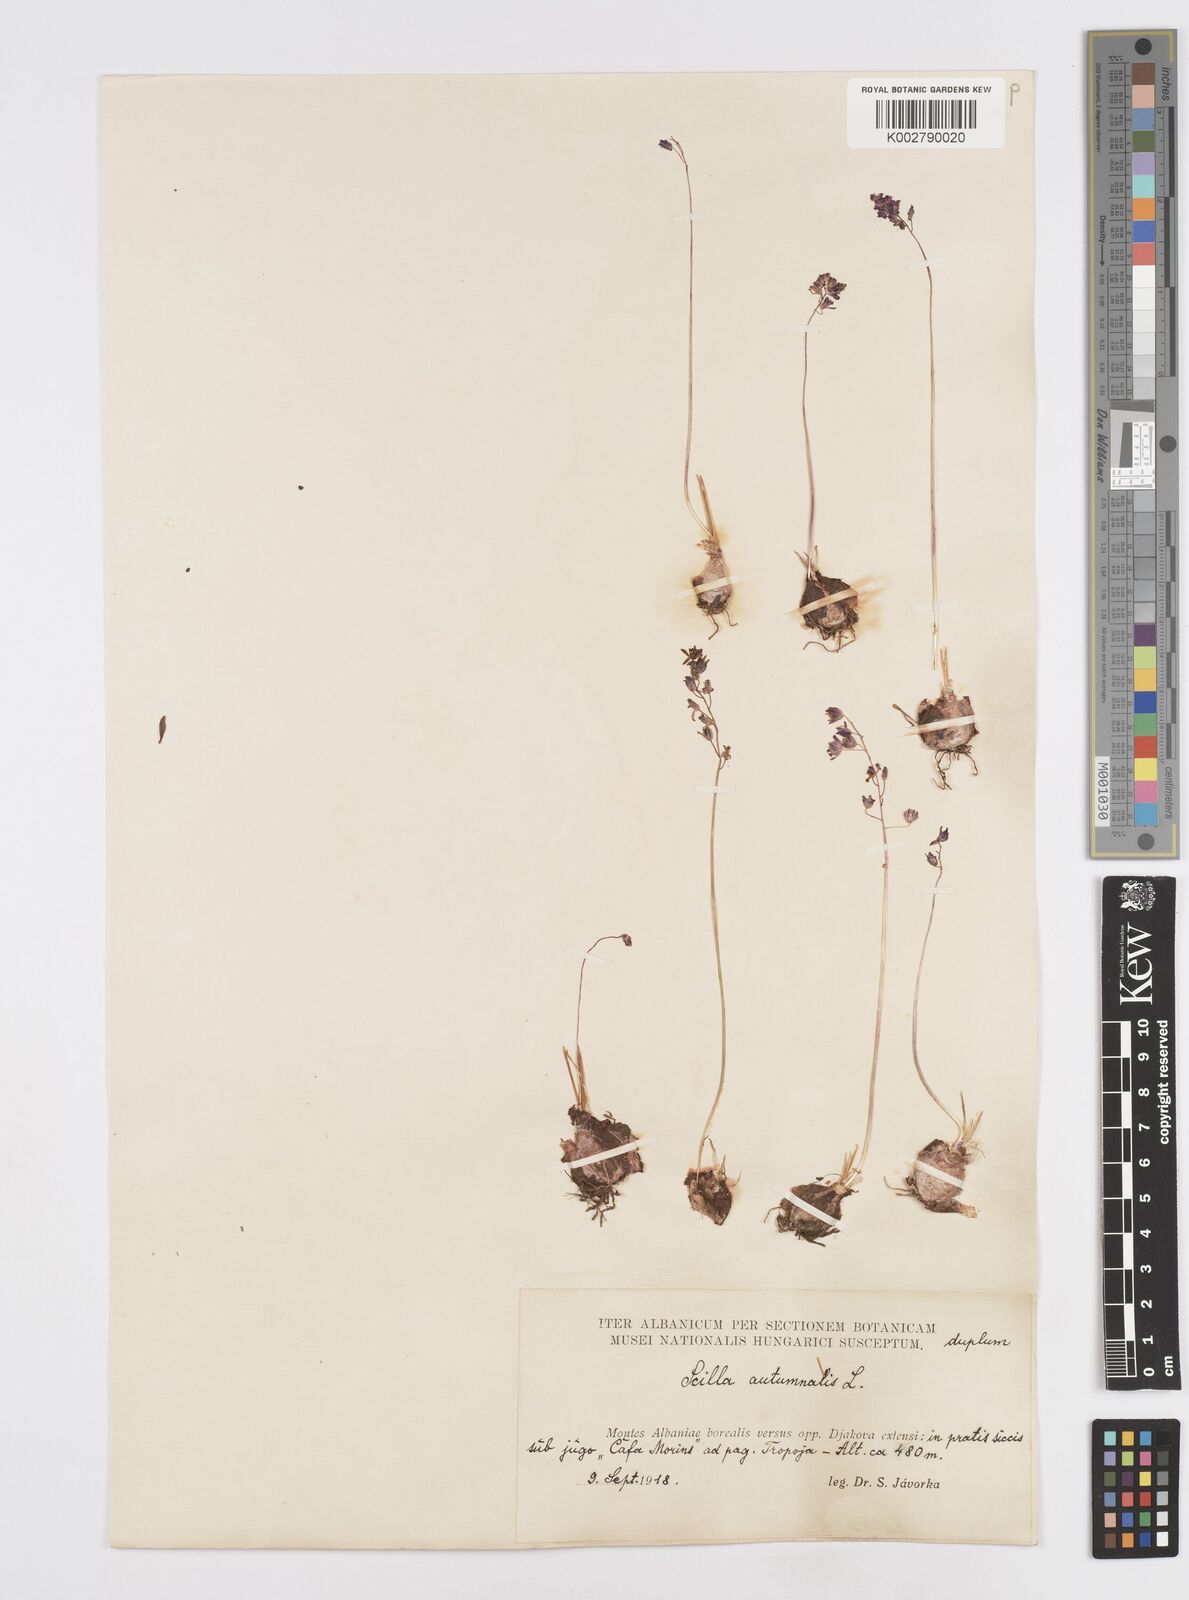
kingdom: Plantae
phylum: Tracheophyta
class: Liliopsida
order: Asparagales
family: Asparagaceae
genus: Prospero
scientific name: Prospero autumnale
